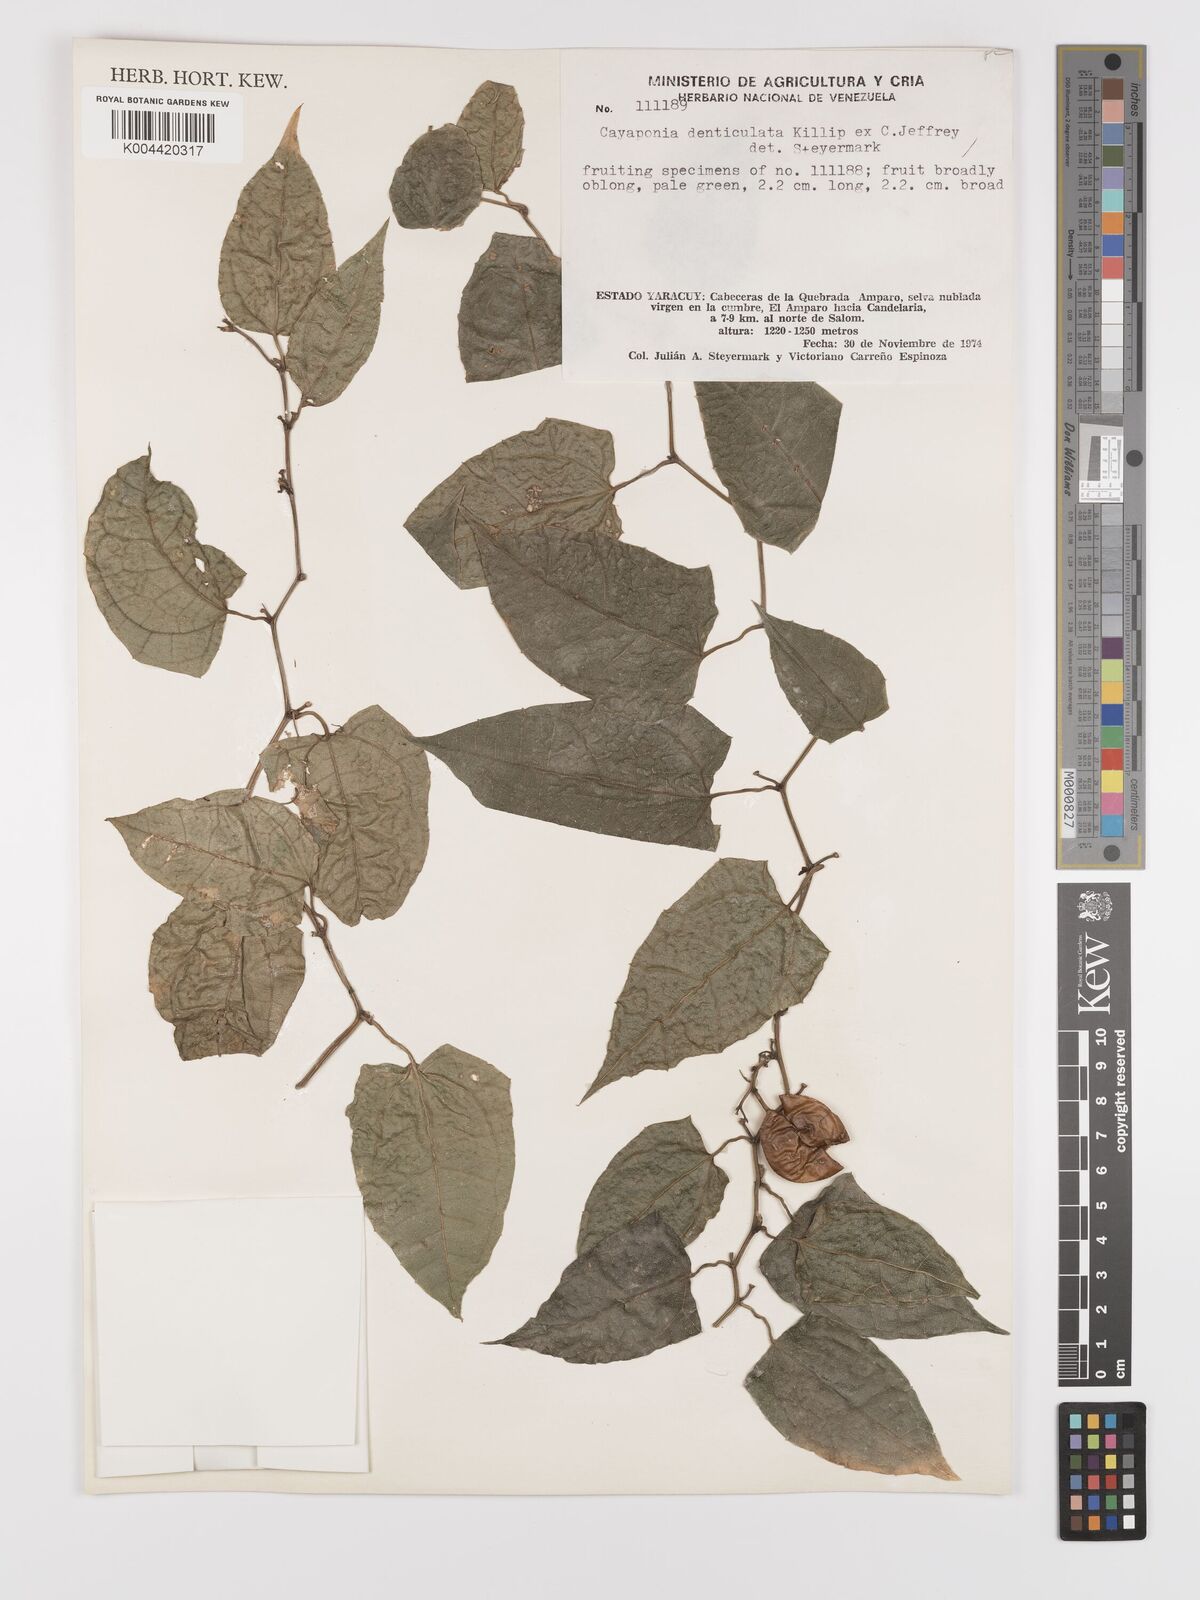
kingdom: Plantae
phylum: Tracheophyta
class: Magnoliopsida
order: Cucurbitales
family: Cucurbitaceae
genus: Cayaponia
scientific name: Cayaponia denticulata
